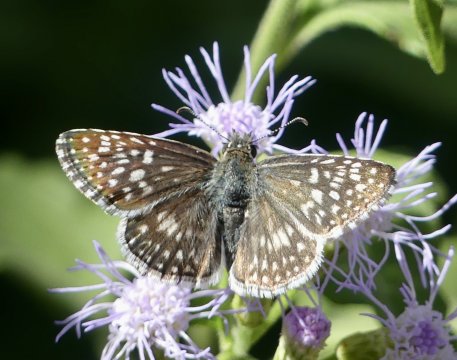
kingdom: Animalia
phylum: Arthropoda
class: Insecta
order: Lepidoptera
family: Hesperiidae
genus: Pyrgus
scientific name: Pyrgus oileus
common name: Desert Checkered-Skipper
